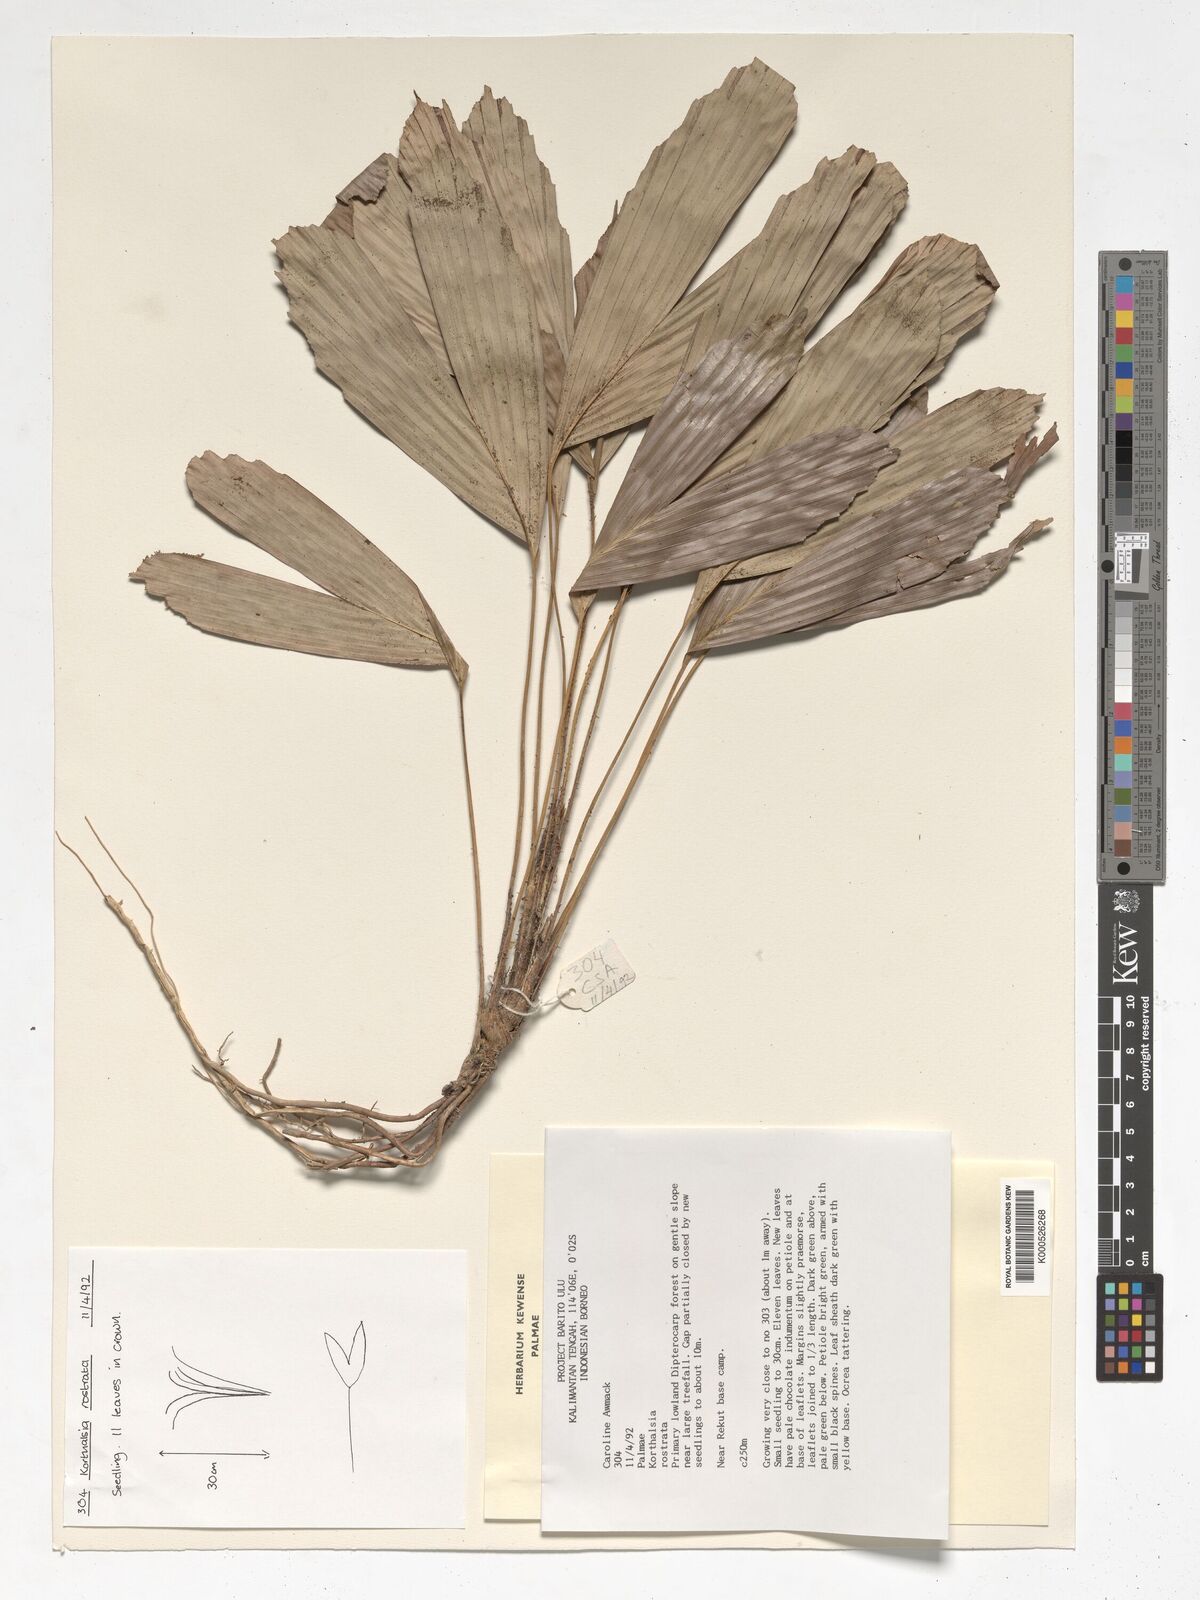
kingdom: Plantae
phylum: Tracheophyta
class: Liliopsida
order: Arecales
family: Arecaceae
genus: Korthalsia
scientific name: Korthalsia rostrata
